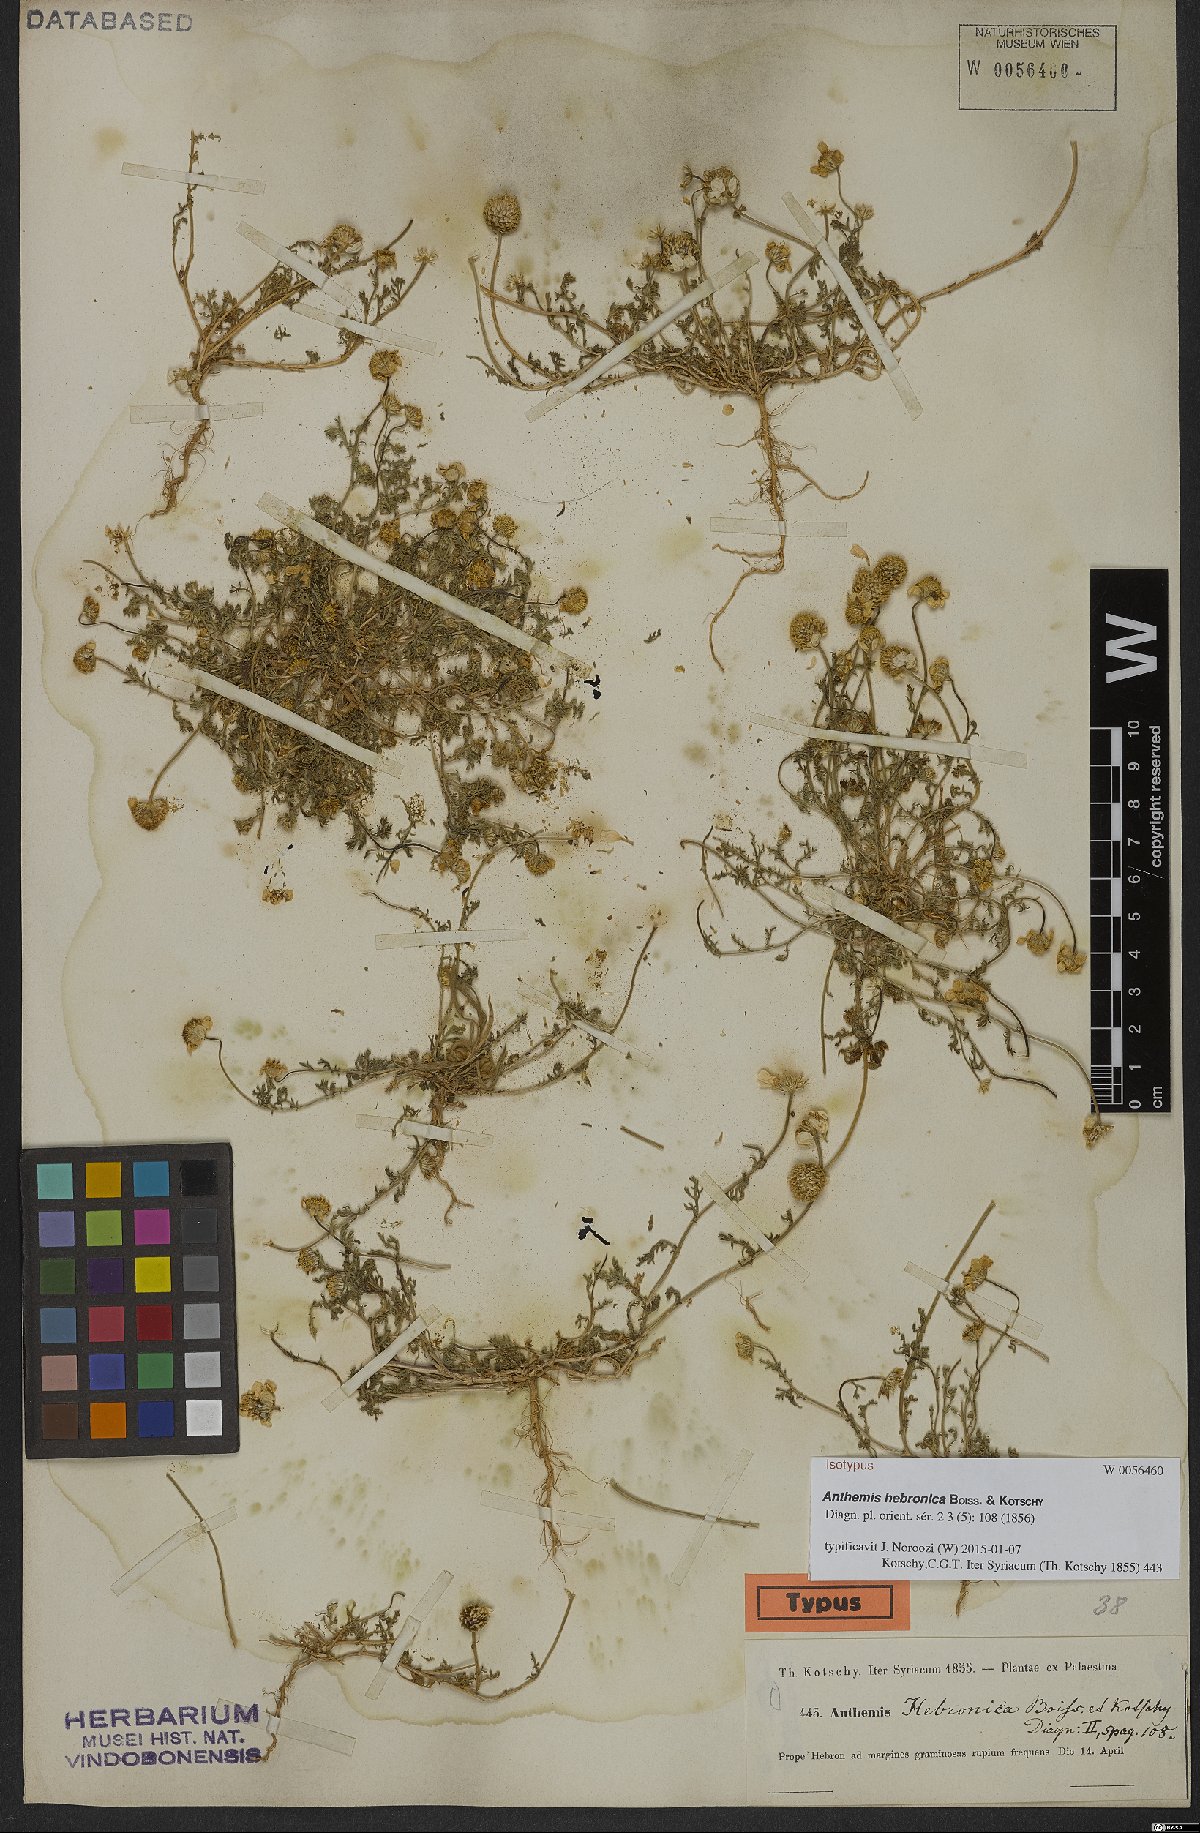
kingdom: Plantae
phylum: Tracheophyta
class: Magnoliopsida
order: Asterales
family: Asteraceae
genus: Anthemis
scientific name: Anthemis hebronica
